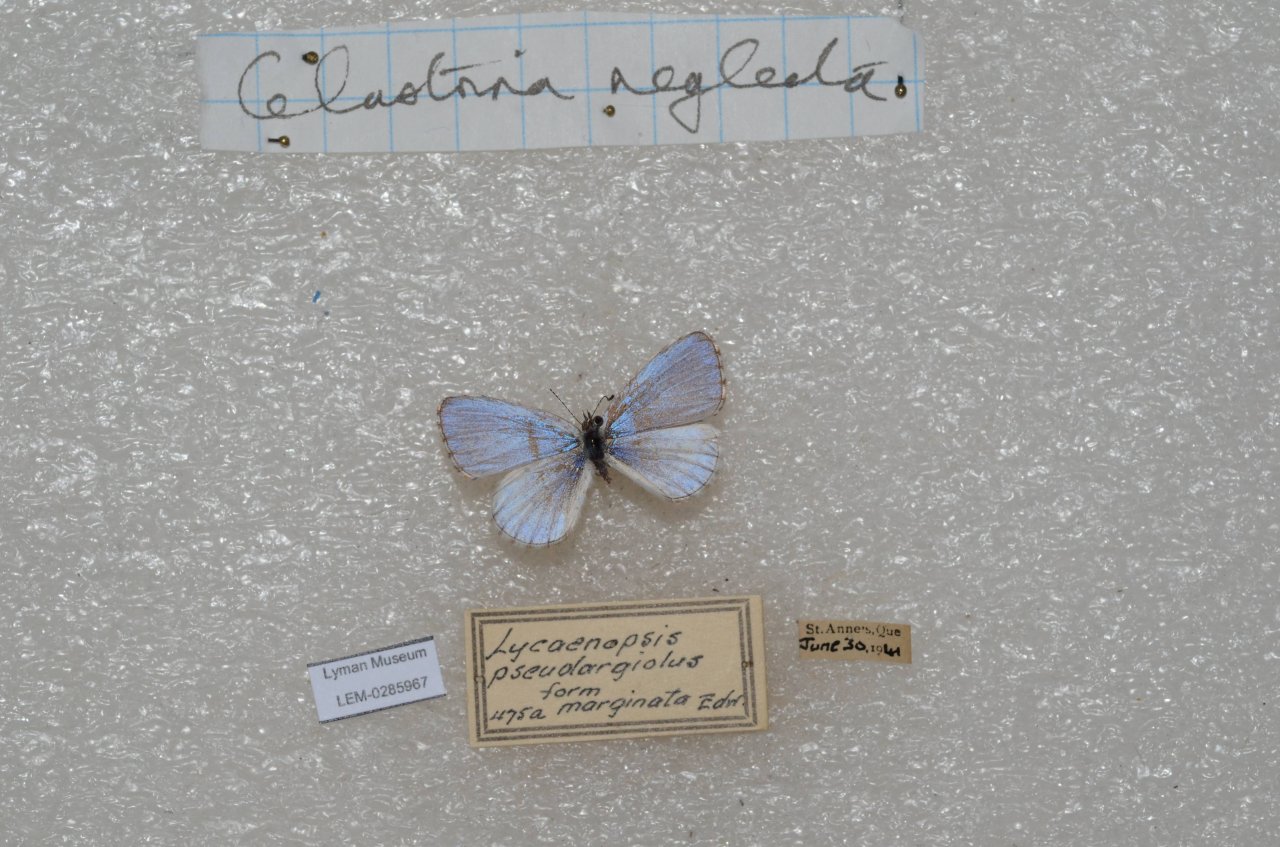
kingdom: Animalia
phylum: Arthropoda
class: Insecta
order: Lepidoptera
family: Lycaenidae
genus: Celastrina
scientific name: Celastrina lucia
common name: Northern Spring Azure
